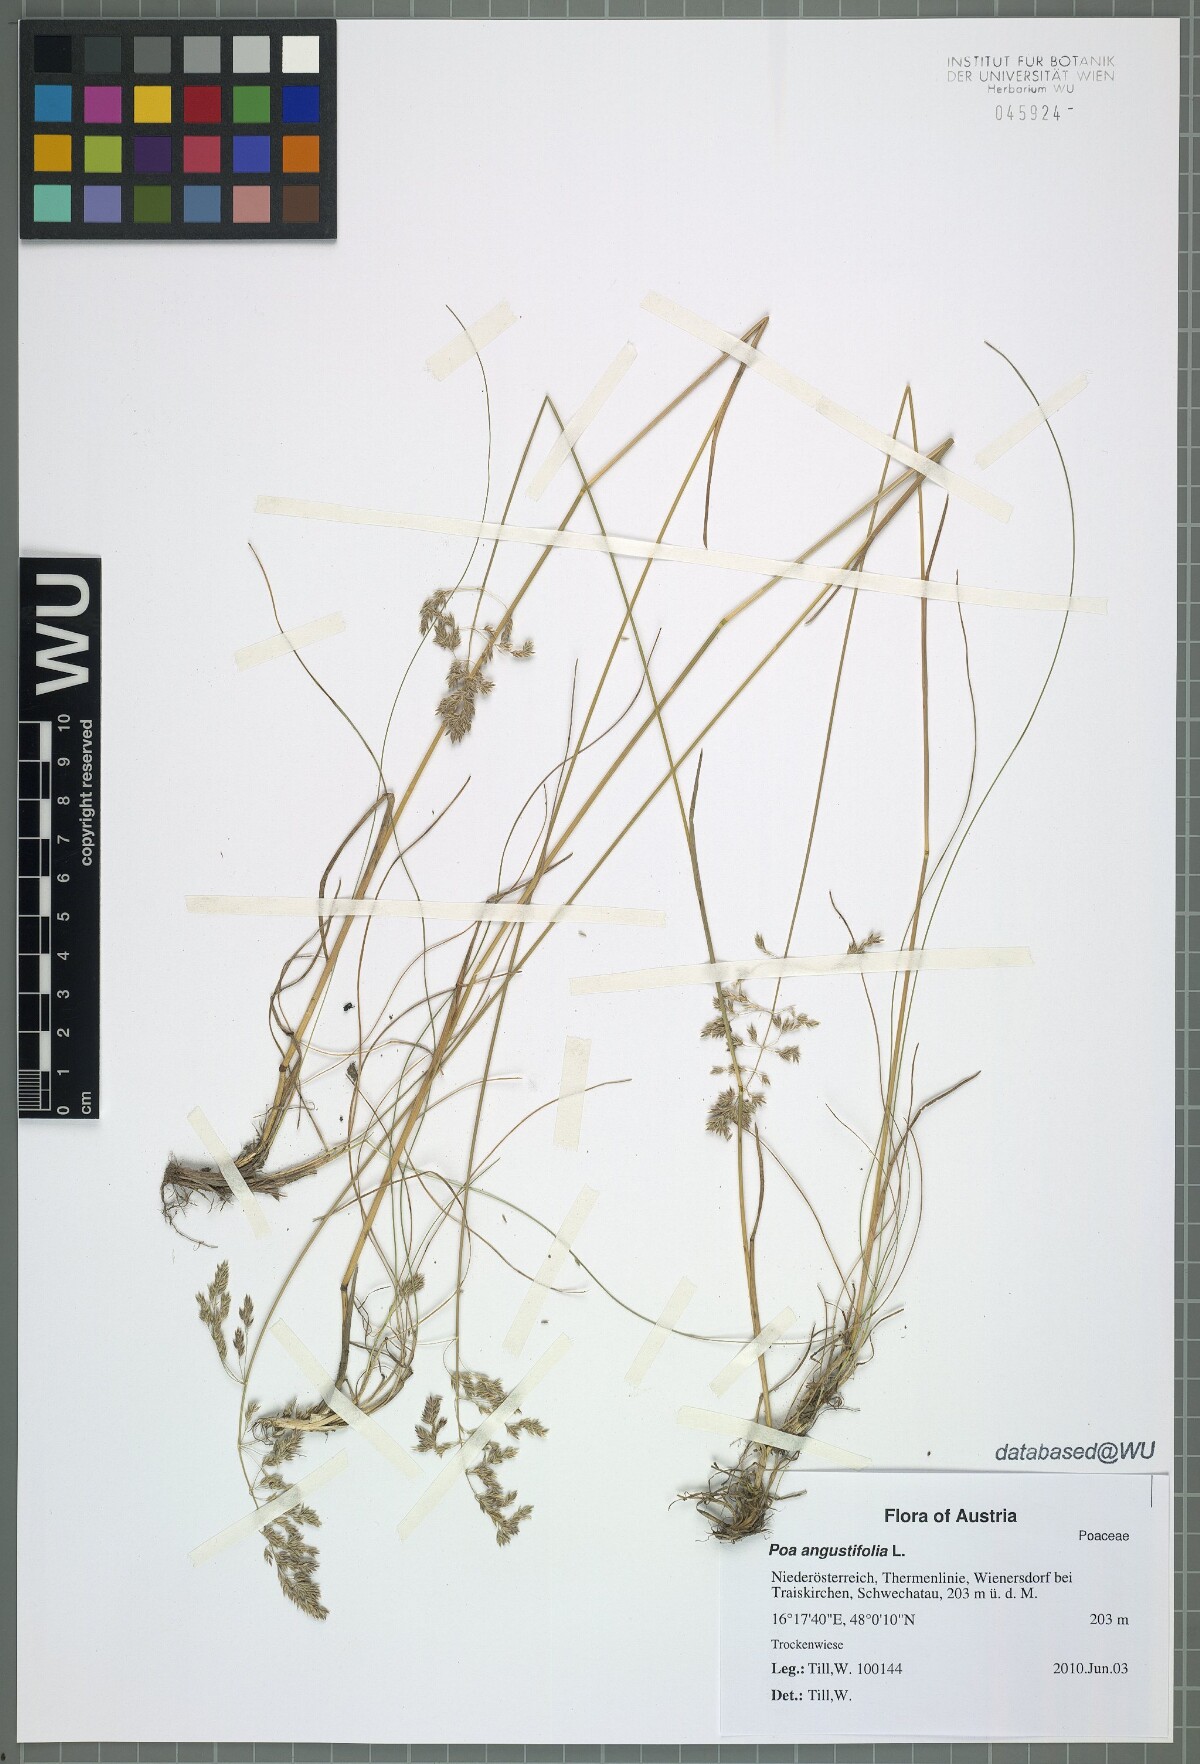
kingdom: Plantae
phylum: Tracheophyta
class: Liliopsida
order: Poales
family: Poaceae
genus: Poa
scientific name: Poa angustifolia
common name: Narrow-leaved meadow-grass
